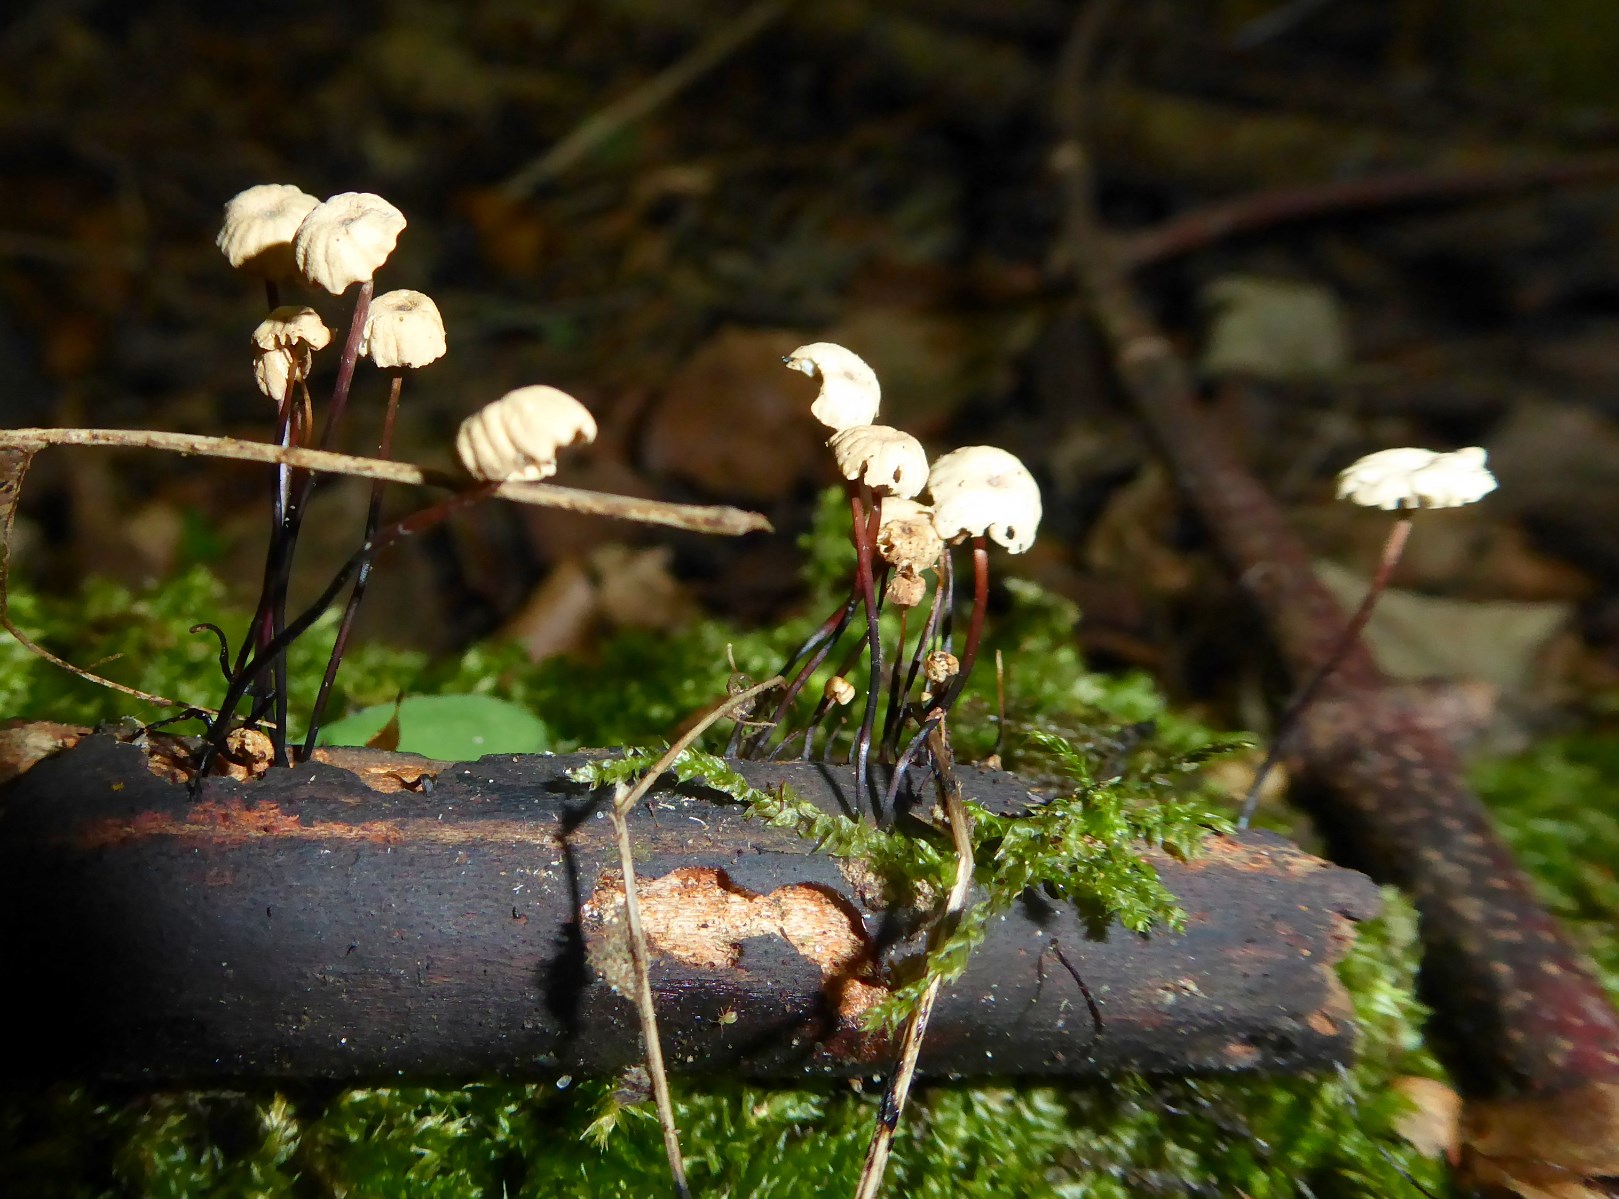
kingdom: Fungi
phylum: Basidiomycota
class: Agaricomycetes
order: Agaricales
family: Marasmiaceae
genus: Marasmius
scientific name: Marasmius rotula
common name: hjul-bruskhat
